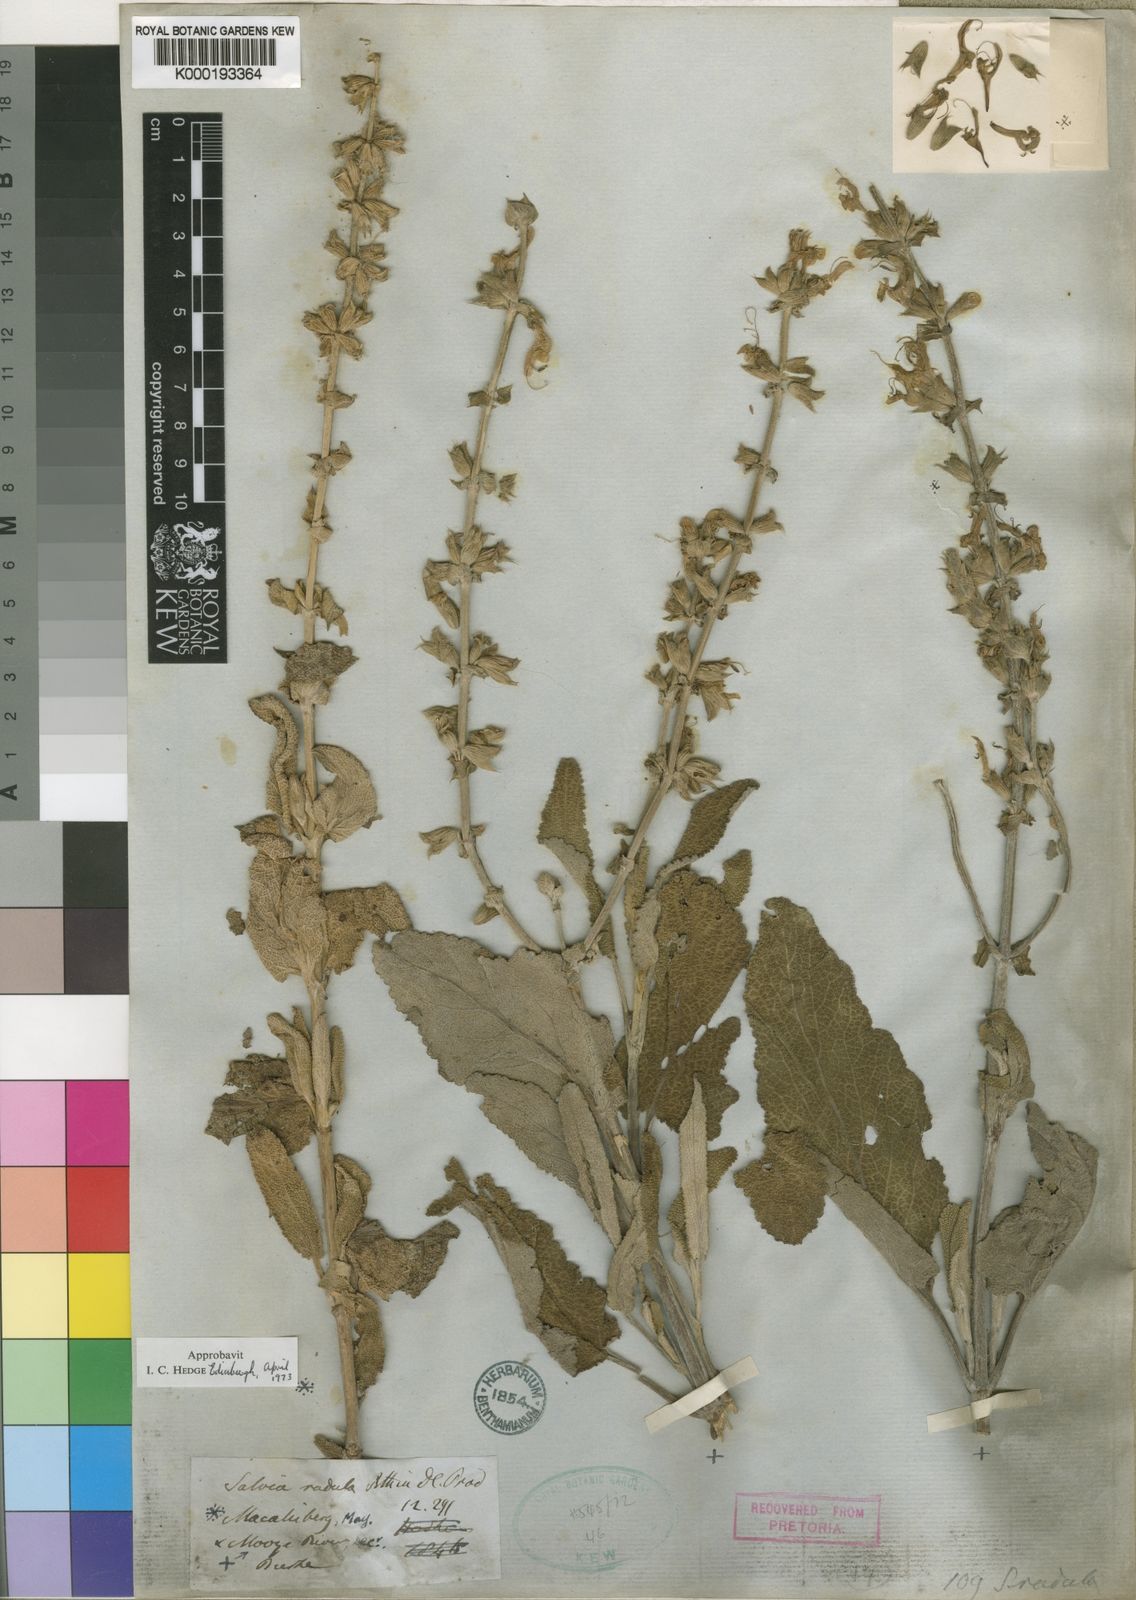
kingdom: Plantae
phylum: Tracheophyta
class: Magnoliopsida
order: Lamiales
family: Lamiaceae
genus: Salvia
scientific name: Salvia radula
